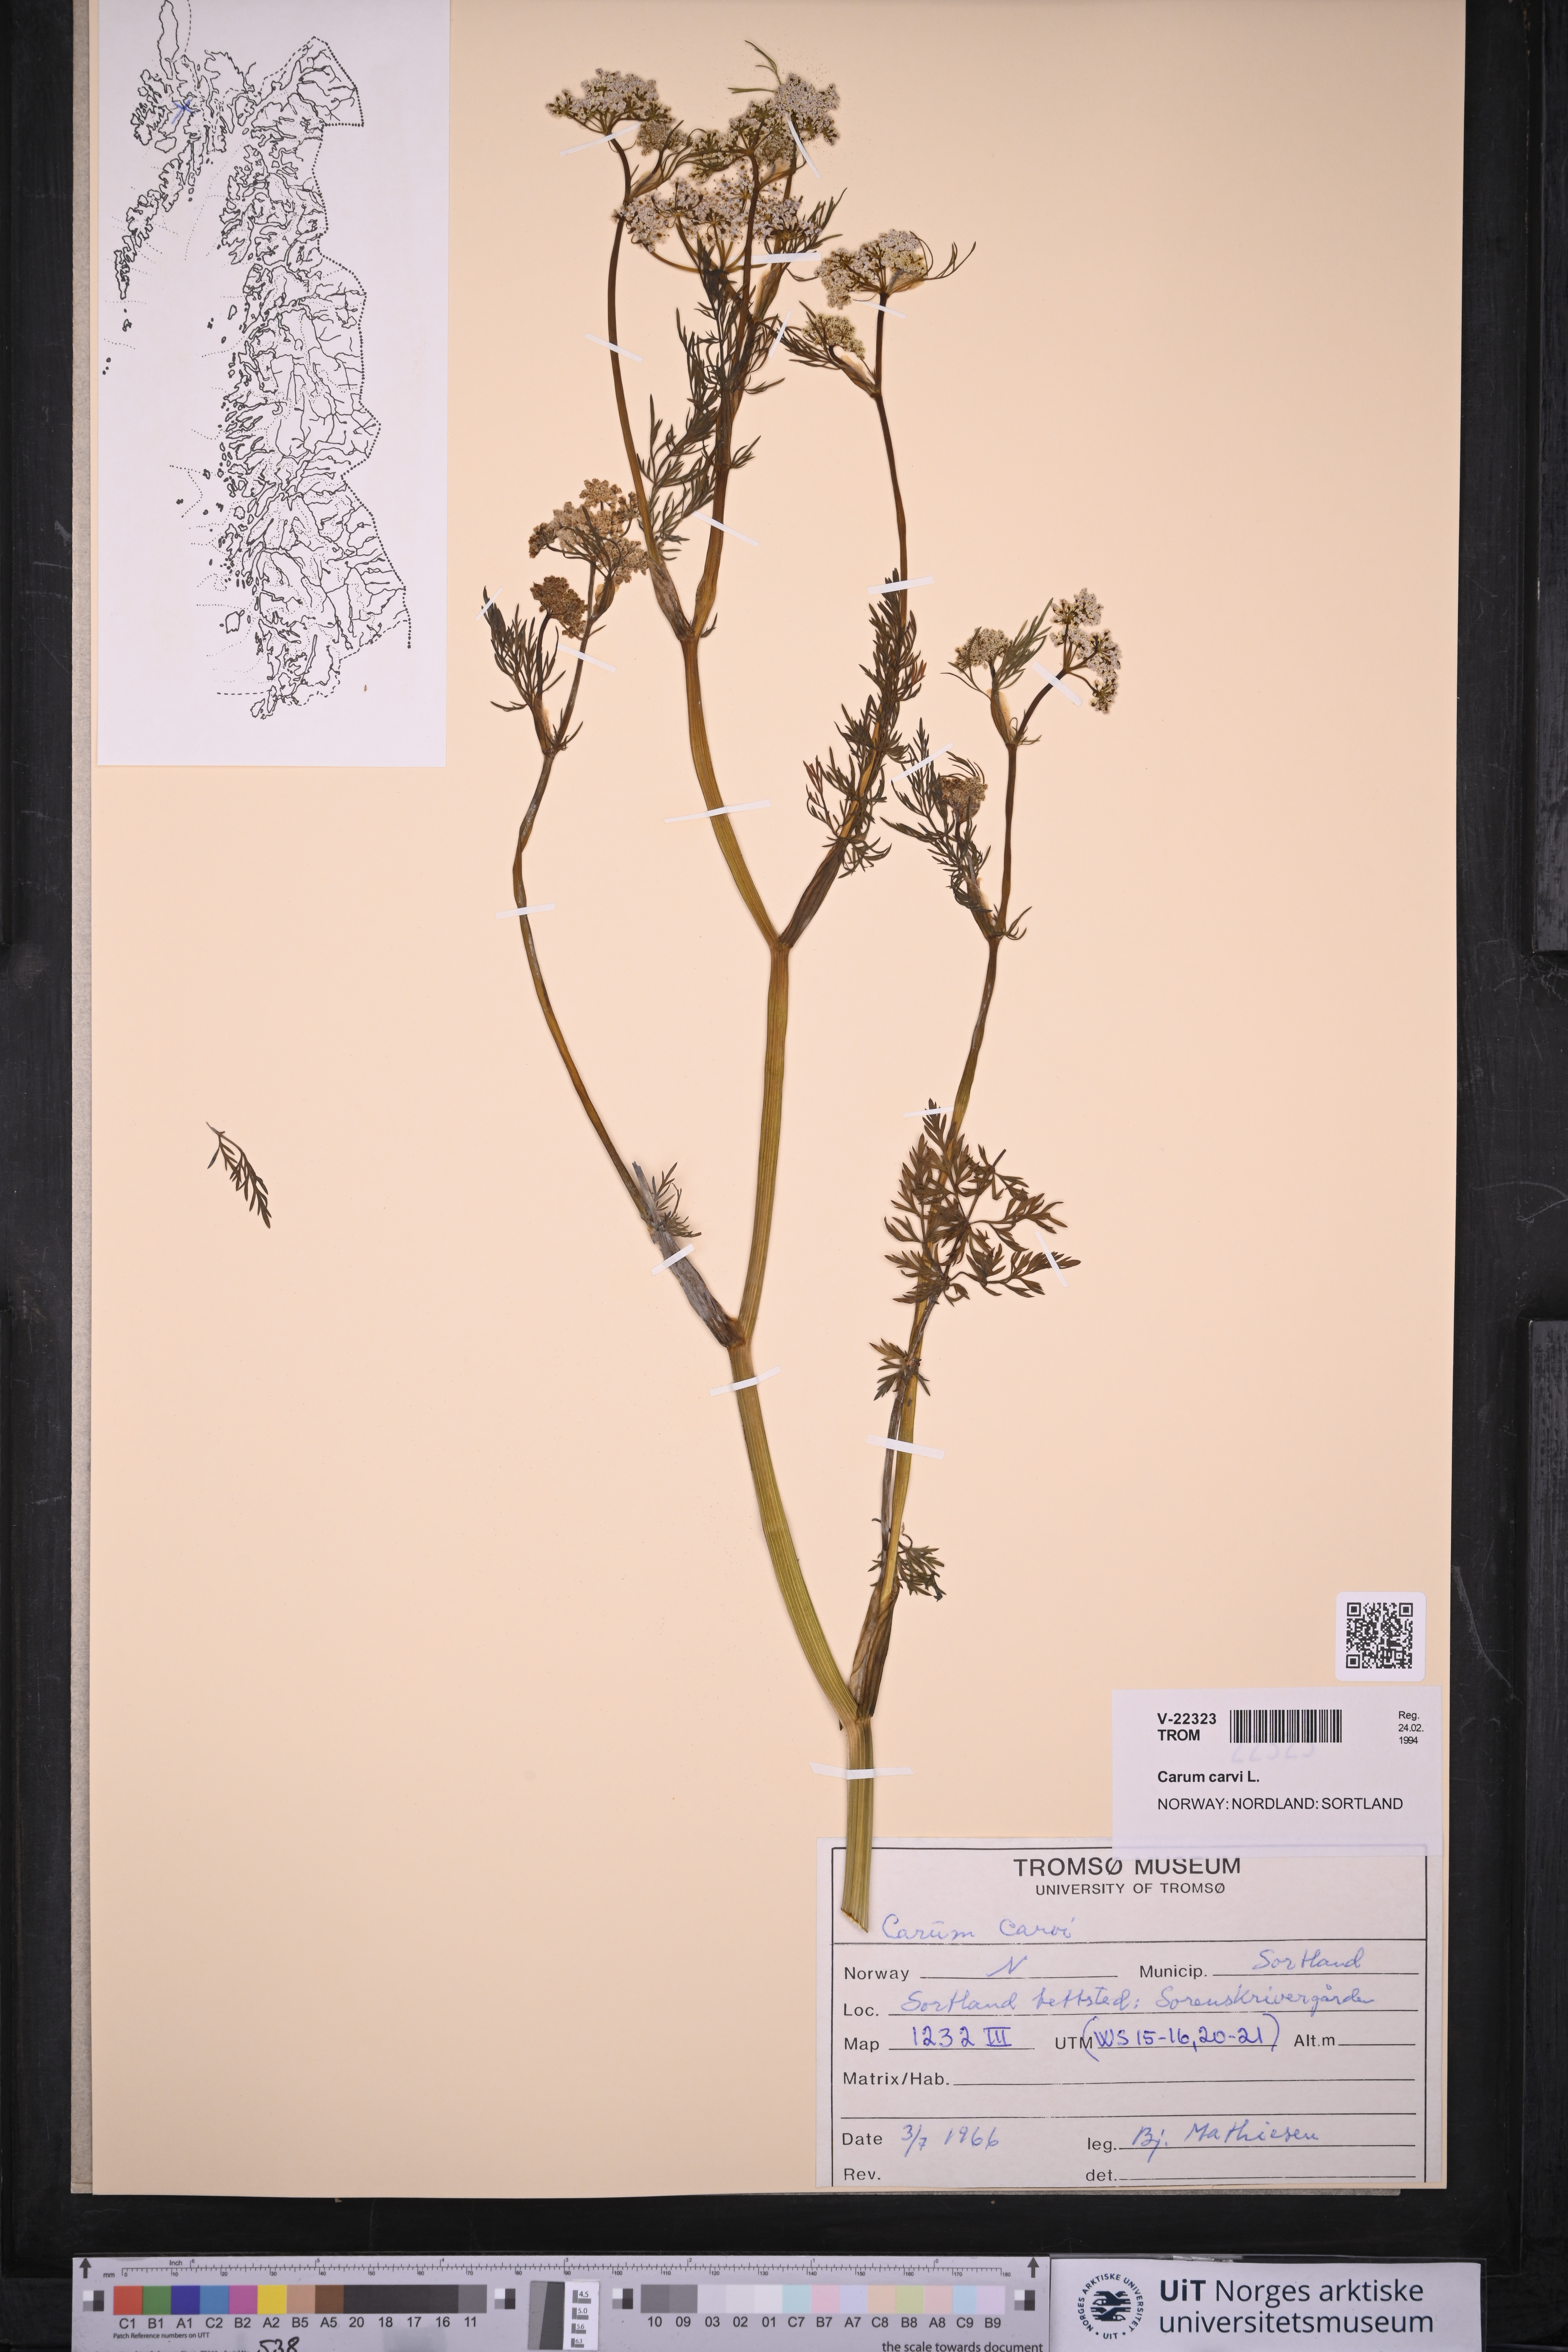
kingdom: Plantae
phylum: Tracheophyta
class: Magnoliopsida
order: Apiales
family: Apiaceae
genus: Carum
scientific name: Carum carvi
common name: Caraway
